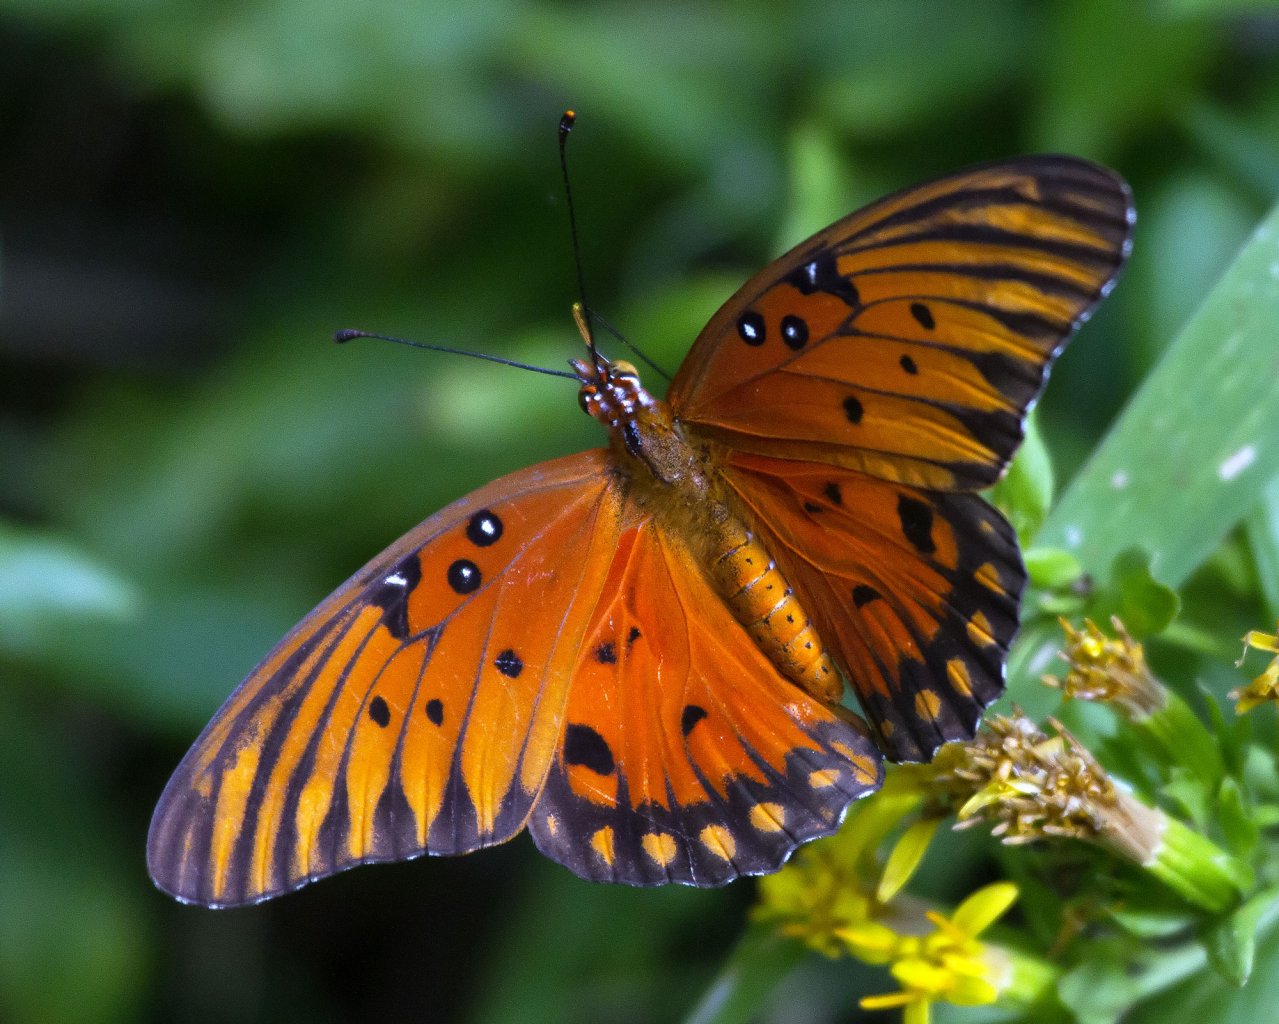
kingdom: Animalia
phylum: Arthropoda
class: Insecta
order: Lepidoptera
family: Nymphalidae
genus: Dione
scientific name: Dione vanillae
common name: Gulf Fritillary
